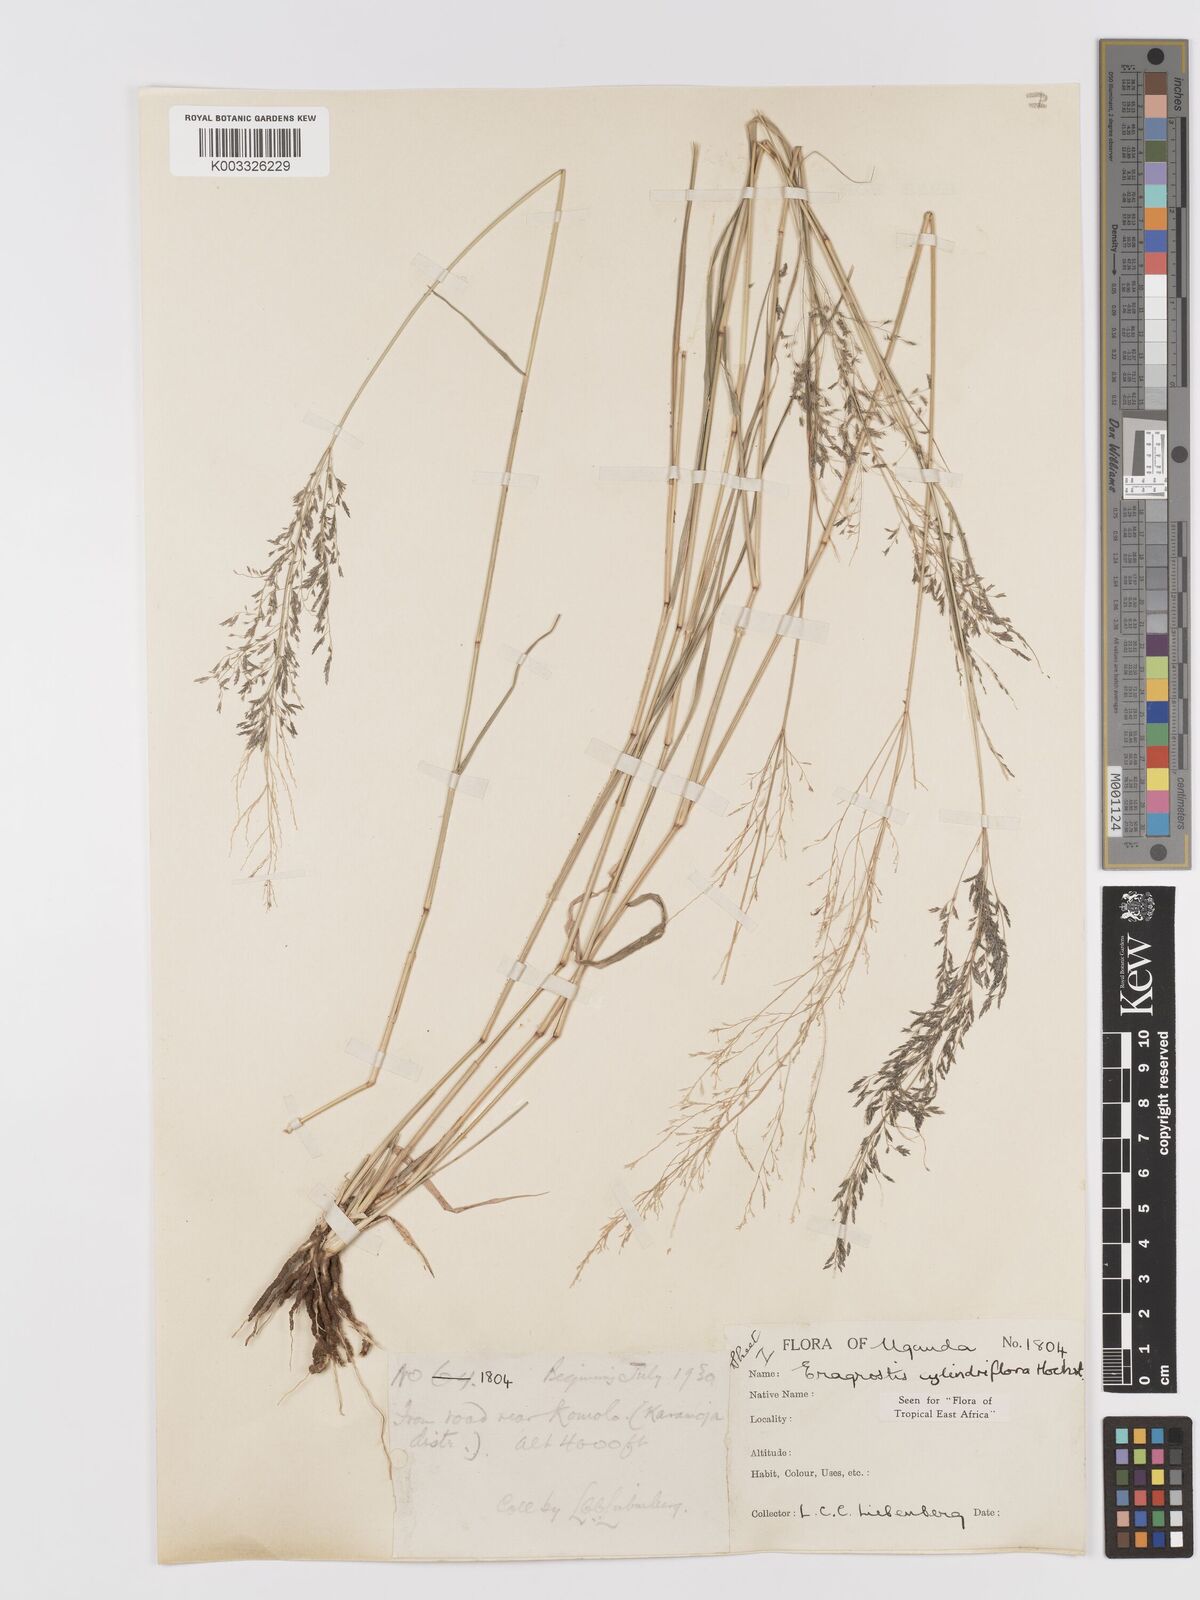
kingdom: Plantae
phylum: Tracheophyta
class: Liliopsida
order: Poales
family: Poaceae
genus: Eragrostis
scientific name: Eragrostis cylindriflora
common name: Cylinderflower lovegrass
